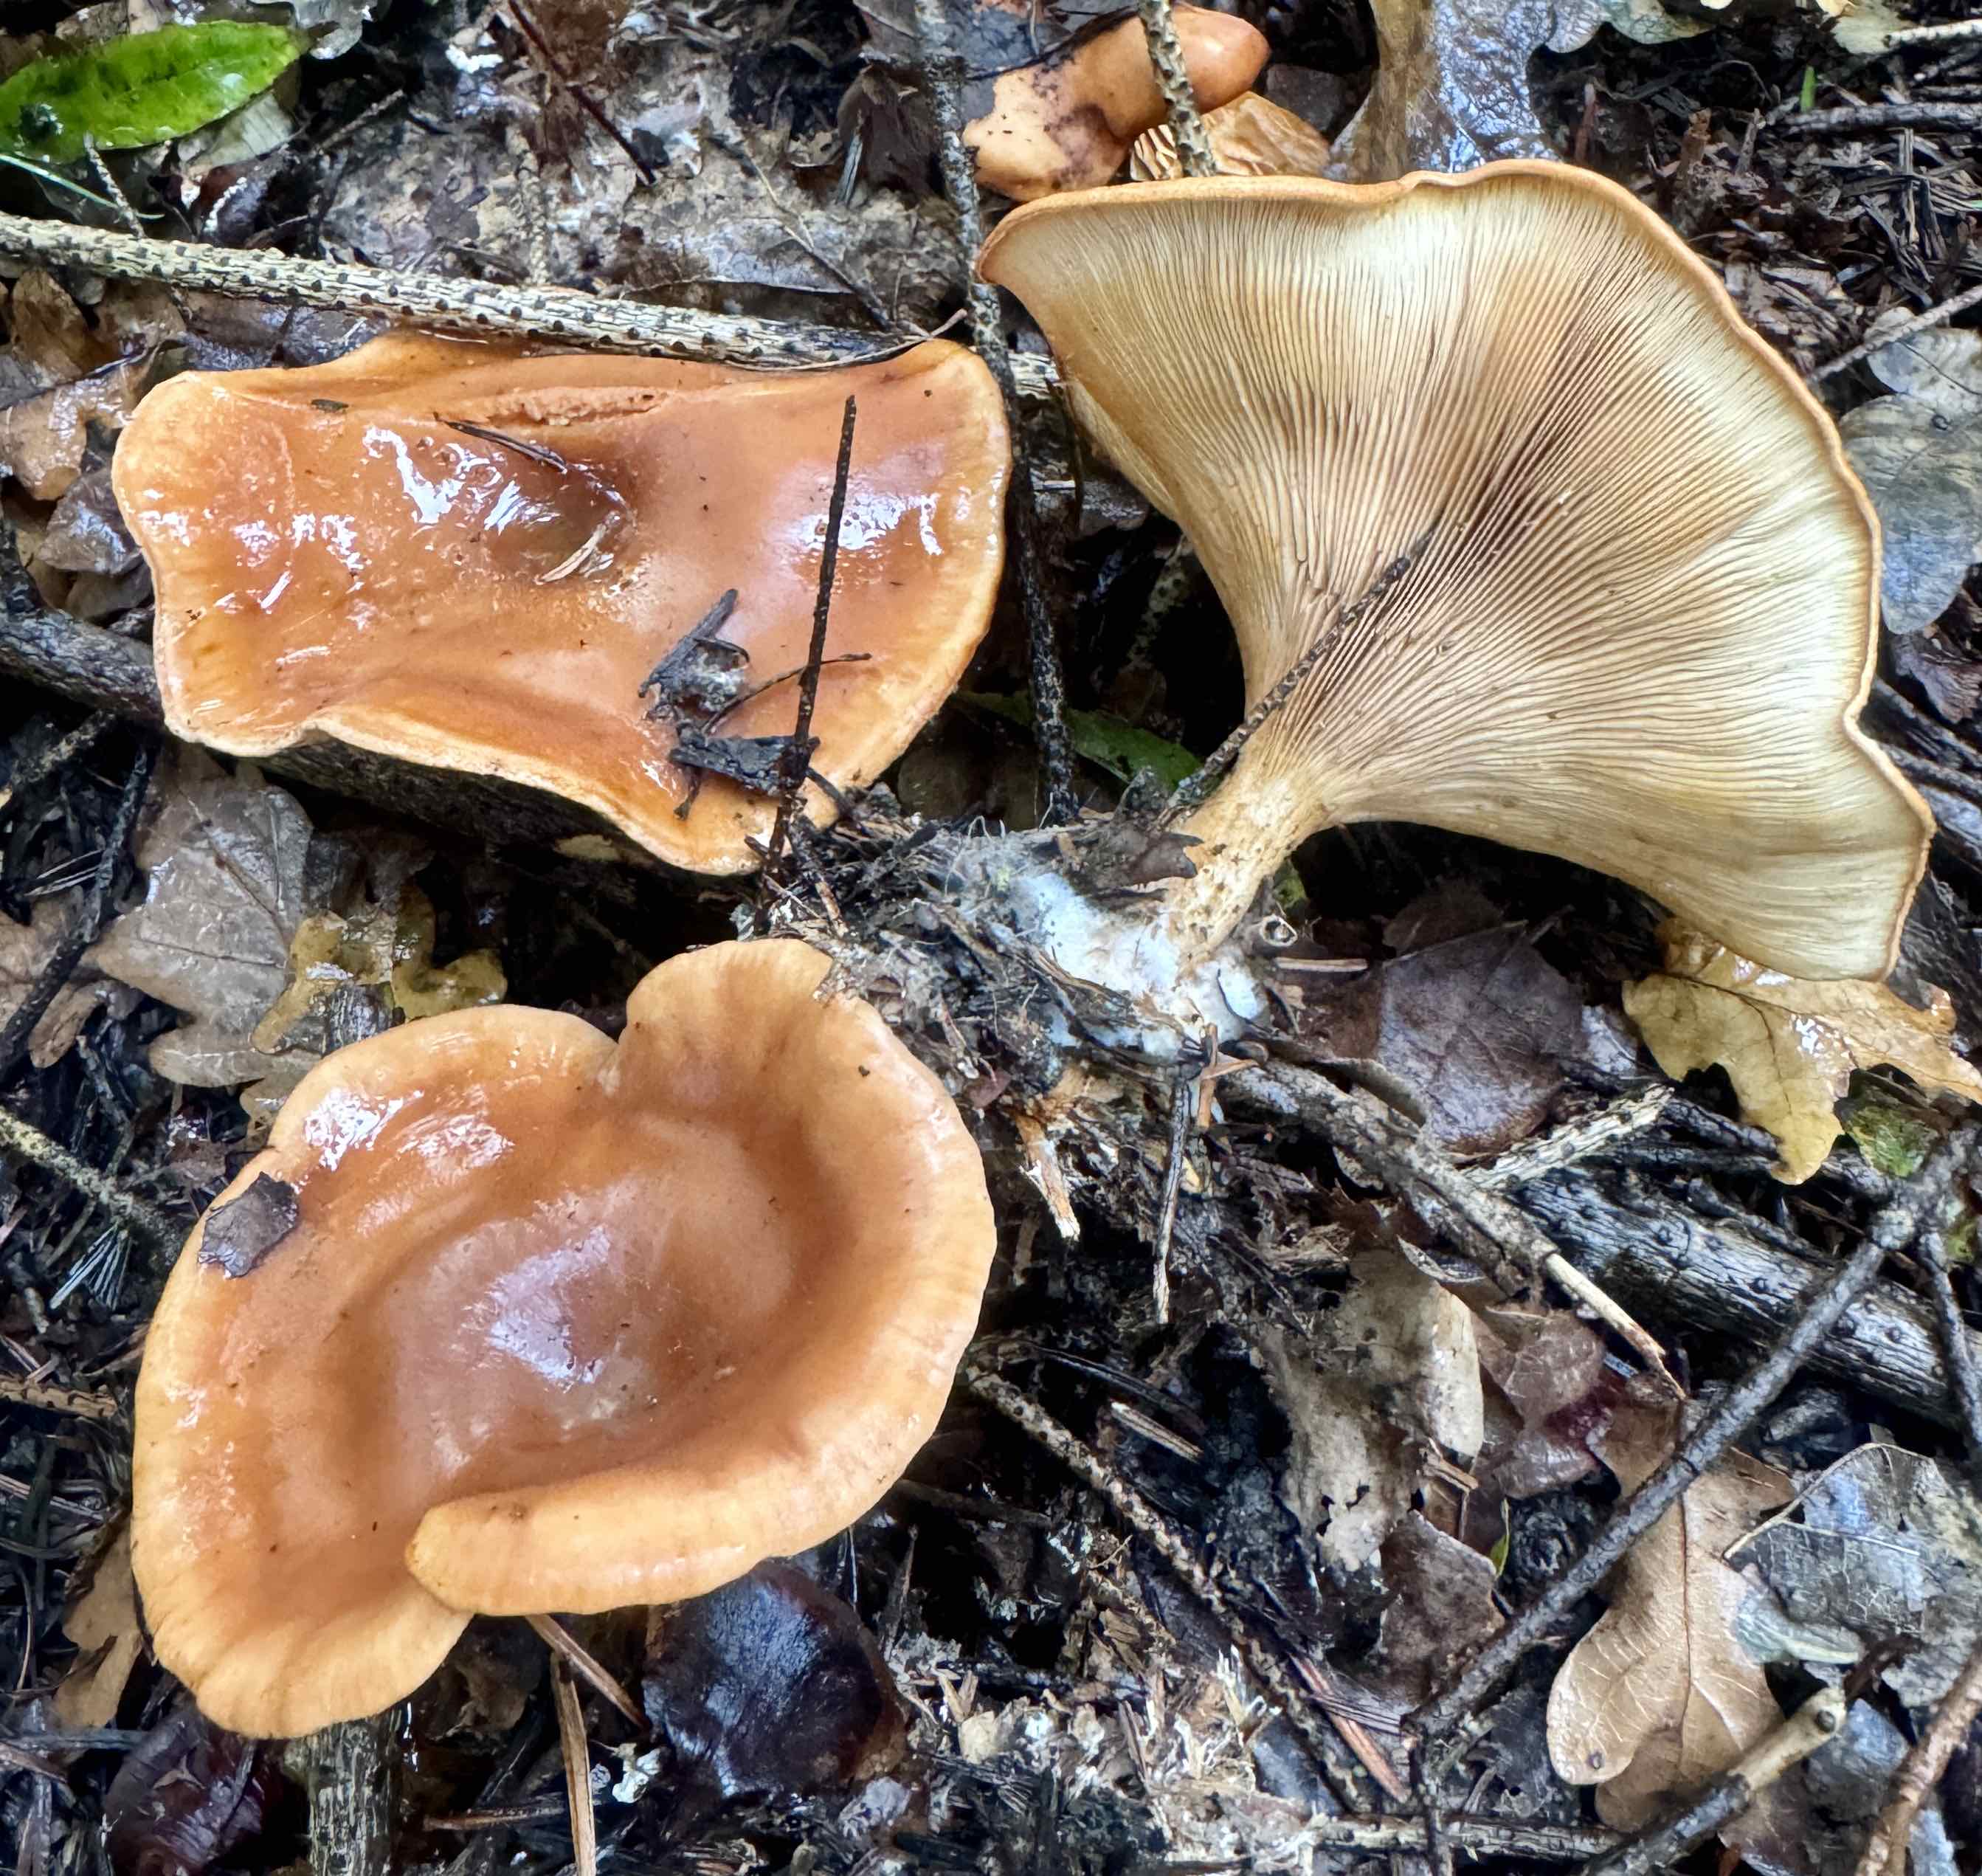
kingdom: Fungi
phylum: Basidiomycota
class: Agaricomycetes
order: Agaricales
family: Tricholomataceae
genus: Paralepista
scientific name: Paralepista flaccida
